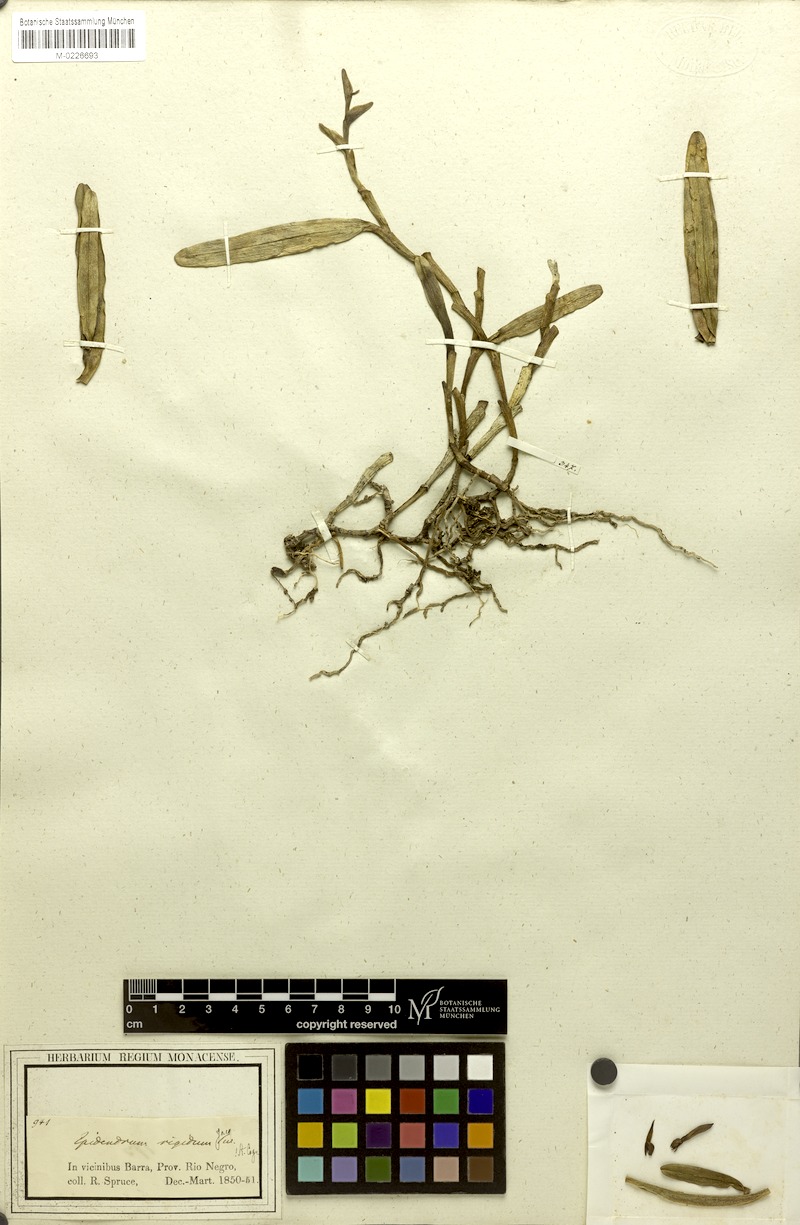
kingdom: Plantae
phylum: Tracheophyta
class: Liliopsida
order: Asparagales
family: Orchidaceae
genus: Epidendrum
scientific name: Epidendrum rigidum
